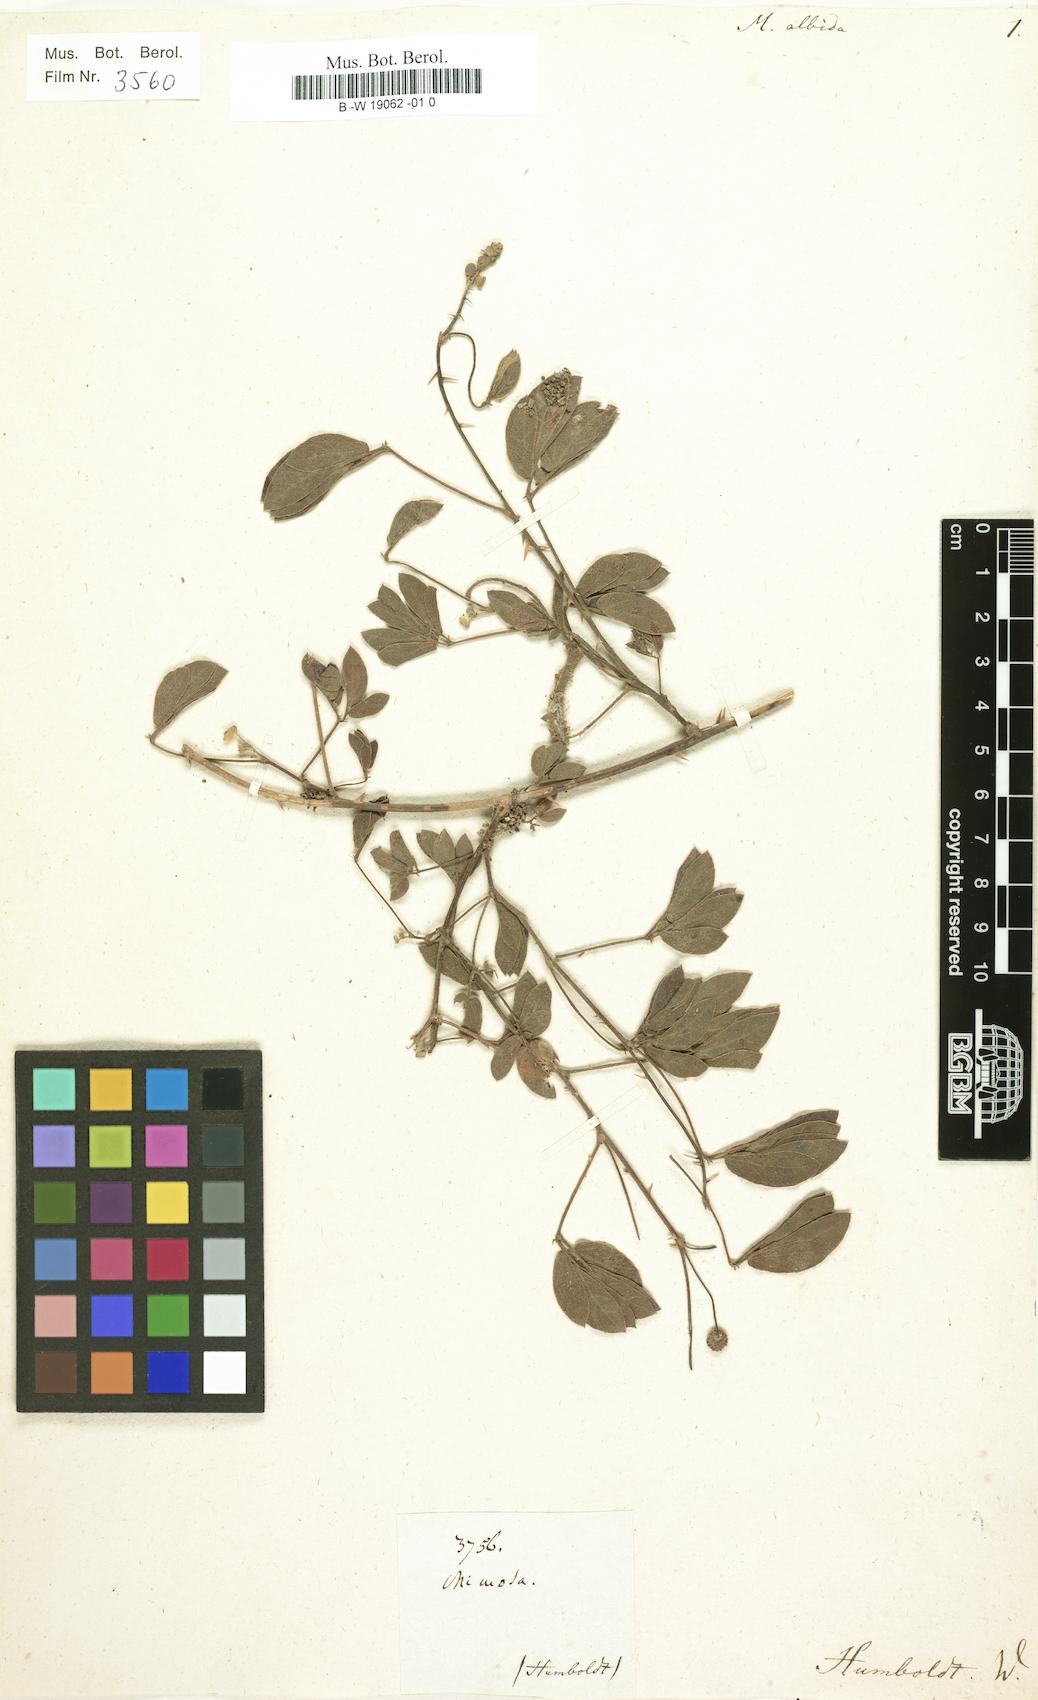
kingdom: Plantae
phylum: Tracheophyta
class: Magnoliopsida
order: Fabales
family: Fabaceae
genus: Mimosa
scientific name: Mimosa albida
